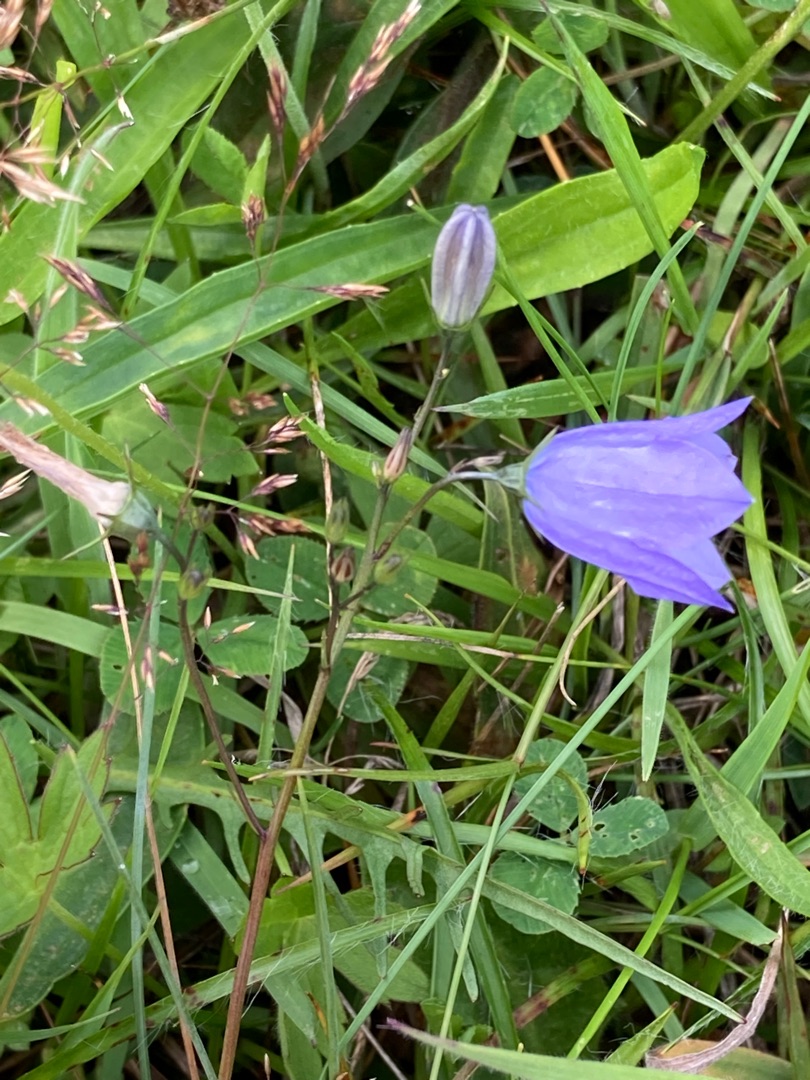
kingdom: Plantae
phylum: Tracheophyta
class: Magnoliopsida
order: Asterales
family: Campanulaceae
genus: Campanula
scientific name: Campanula rotundifolia
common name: Liden klokke
